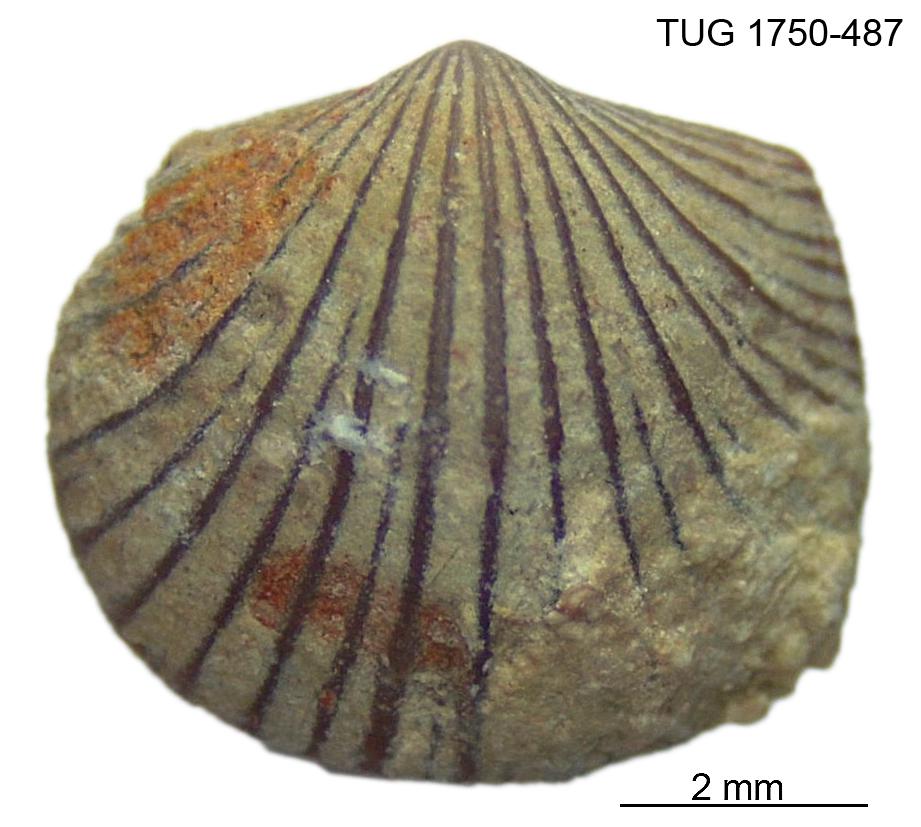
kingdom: Animalia
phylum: Brachiopoda
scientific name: Brachiopoda
